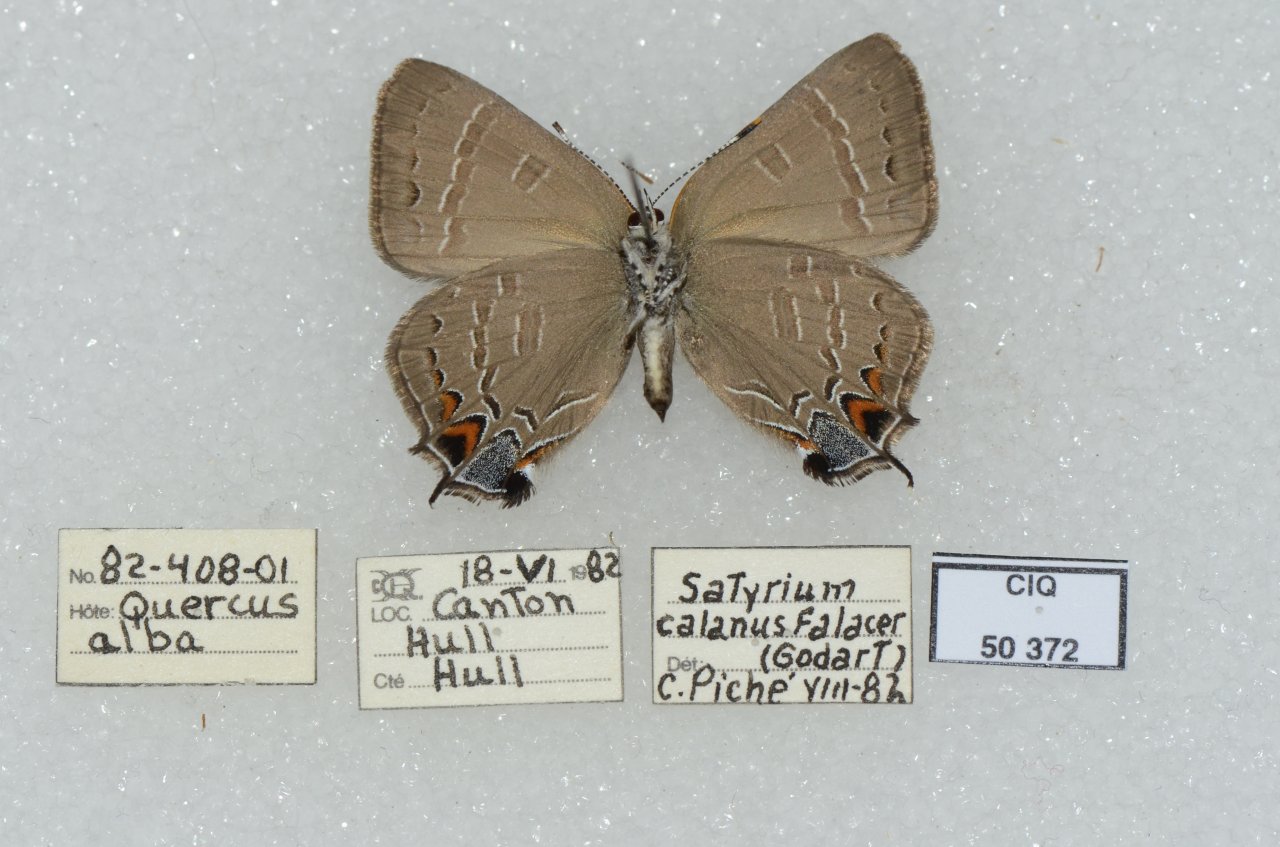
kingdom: Animalia
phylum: Arthropoda
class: Insecta
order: Lepidoptera
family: Lycaenidae
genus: Satyrium
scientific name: Satyrium calanus
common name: Banded Hairstreak
